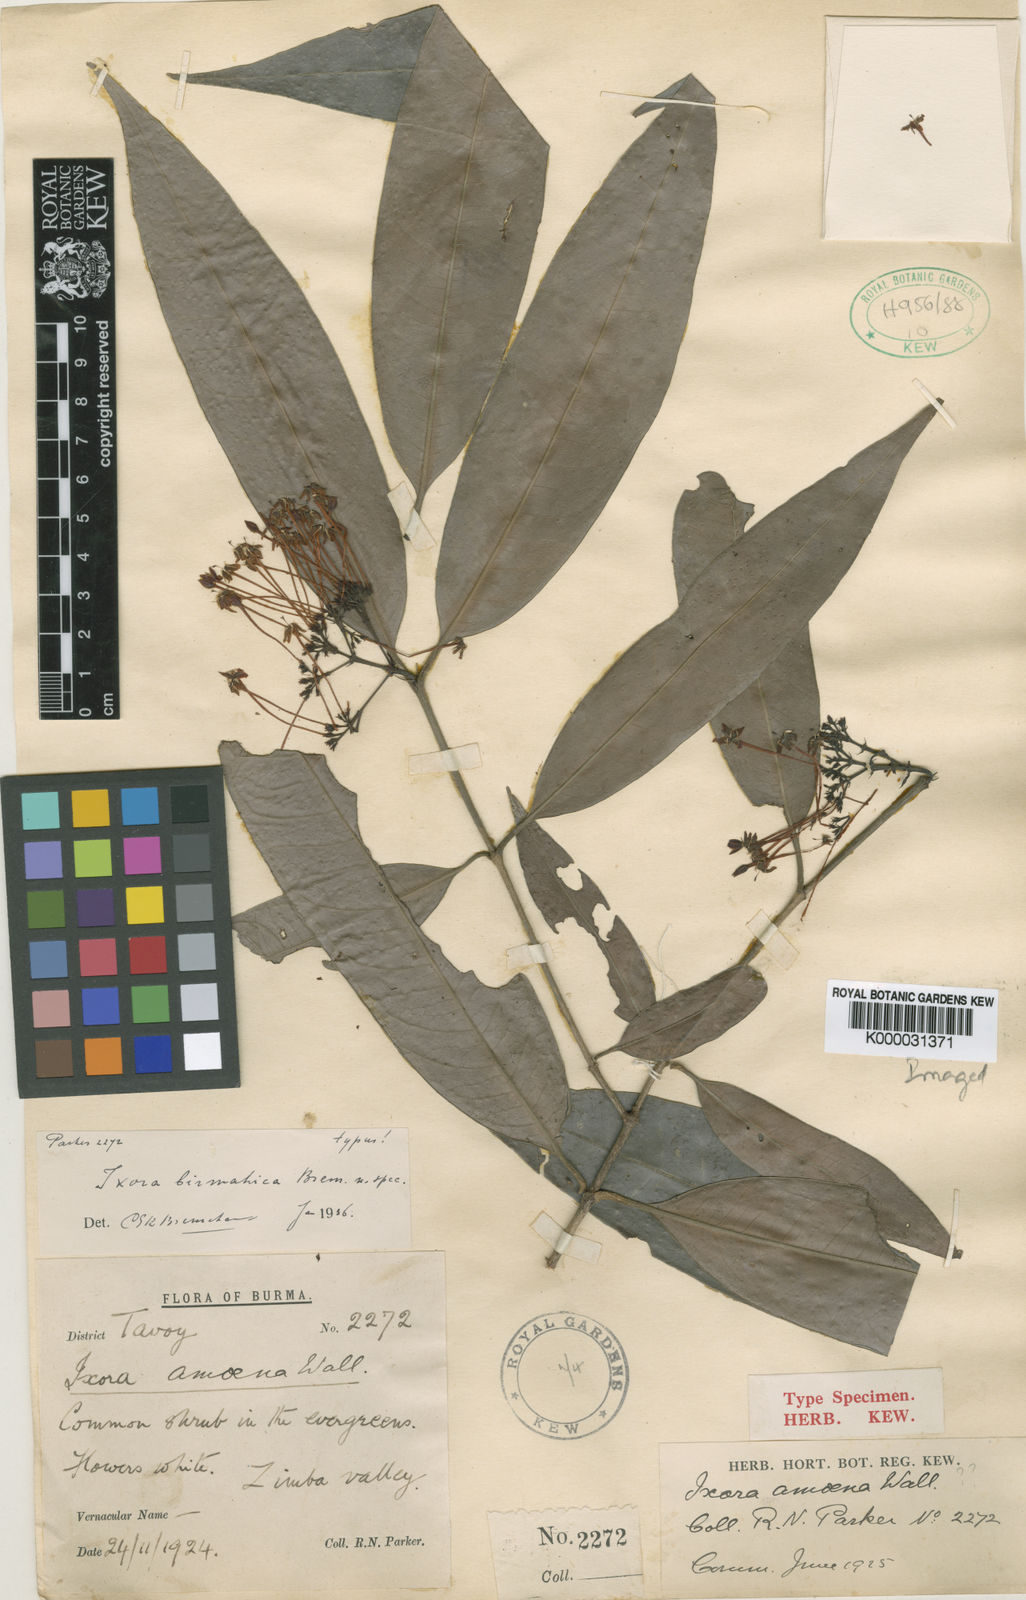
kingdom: Plantae
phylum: Tracheophyta
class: Magnoliopsida
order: Gentianales
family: Rubiaceae
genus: Ixora
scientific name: Ixora birmahica
